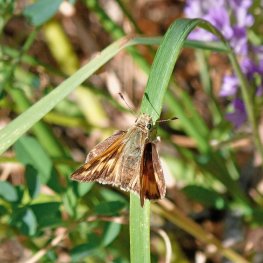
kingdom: Animalia
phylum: Arthropoda
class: Insecta
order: Lepidoptera
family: Hesperiidae
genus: Ochlodes
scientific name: Ochlodes sylvanoides
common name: Woodland Skipper
